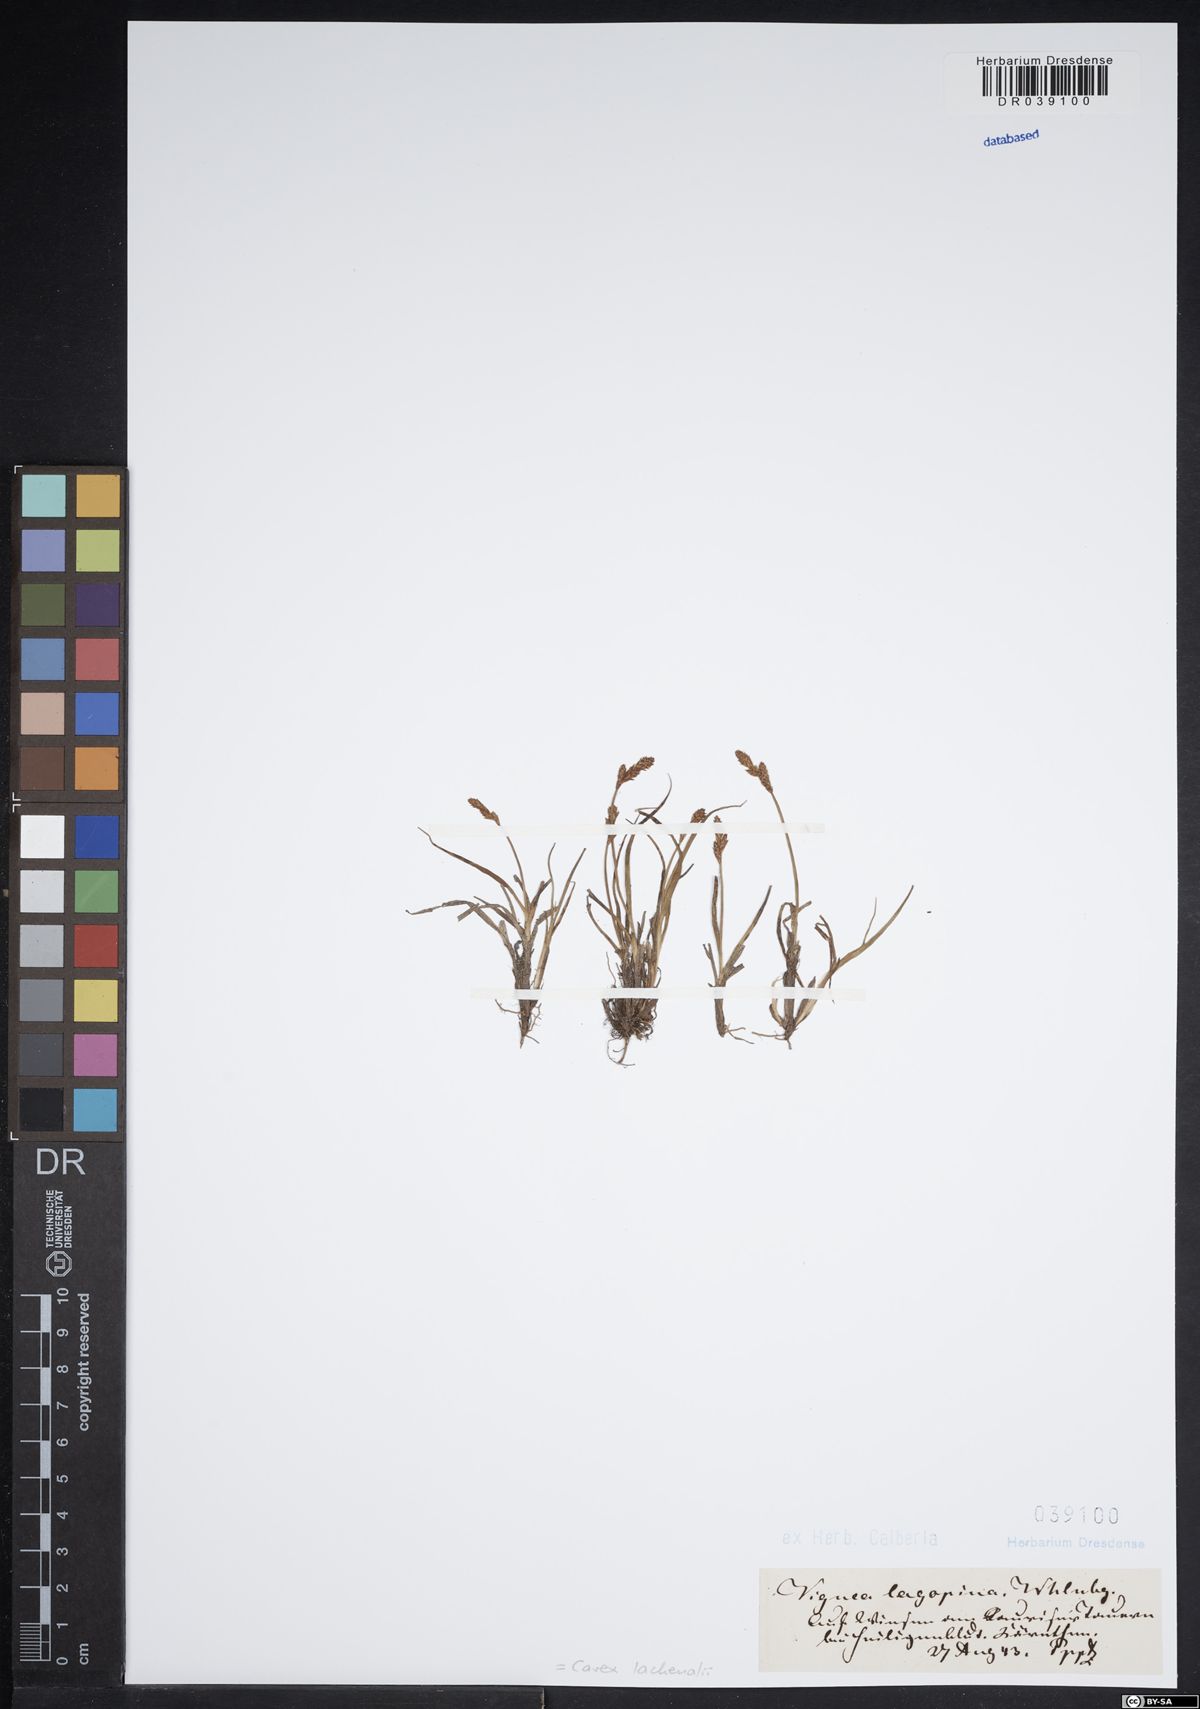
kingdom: Plantae
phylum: Tracheophyta
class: Liliopsida
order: Poales
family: Cyperaceae
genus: Carex
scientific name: Carex lachenalii
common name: Hare's-foot sedge
